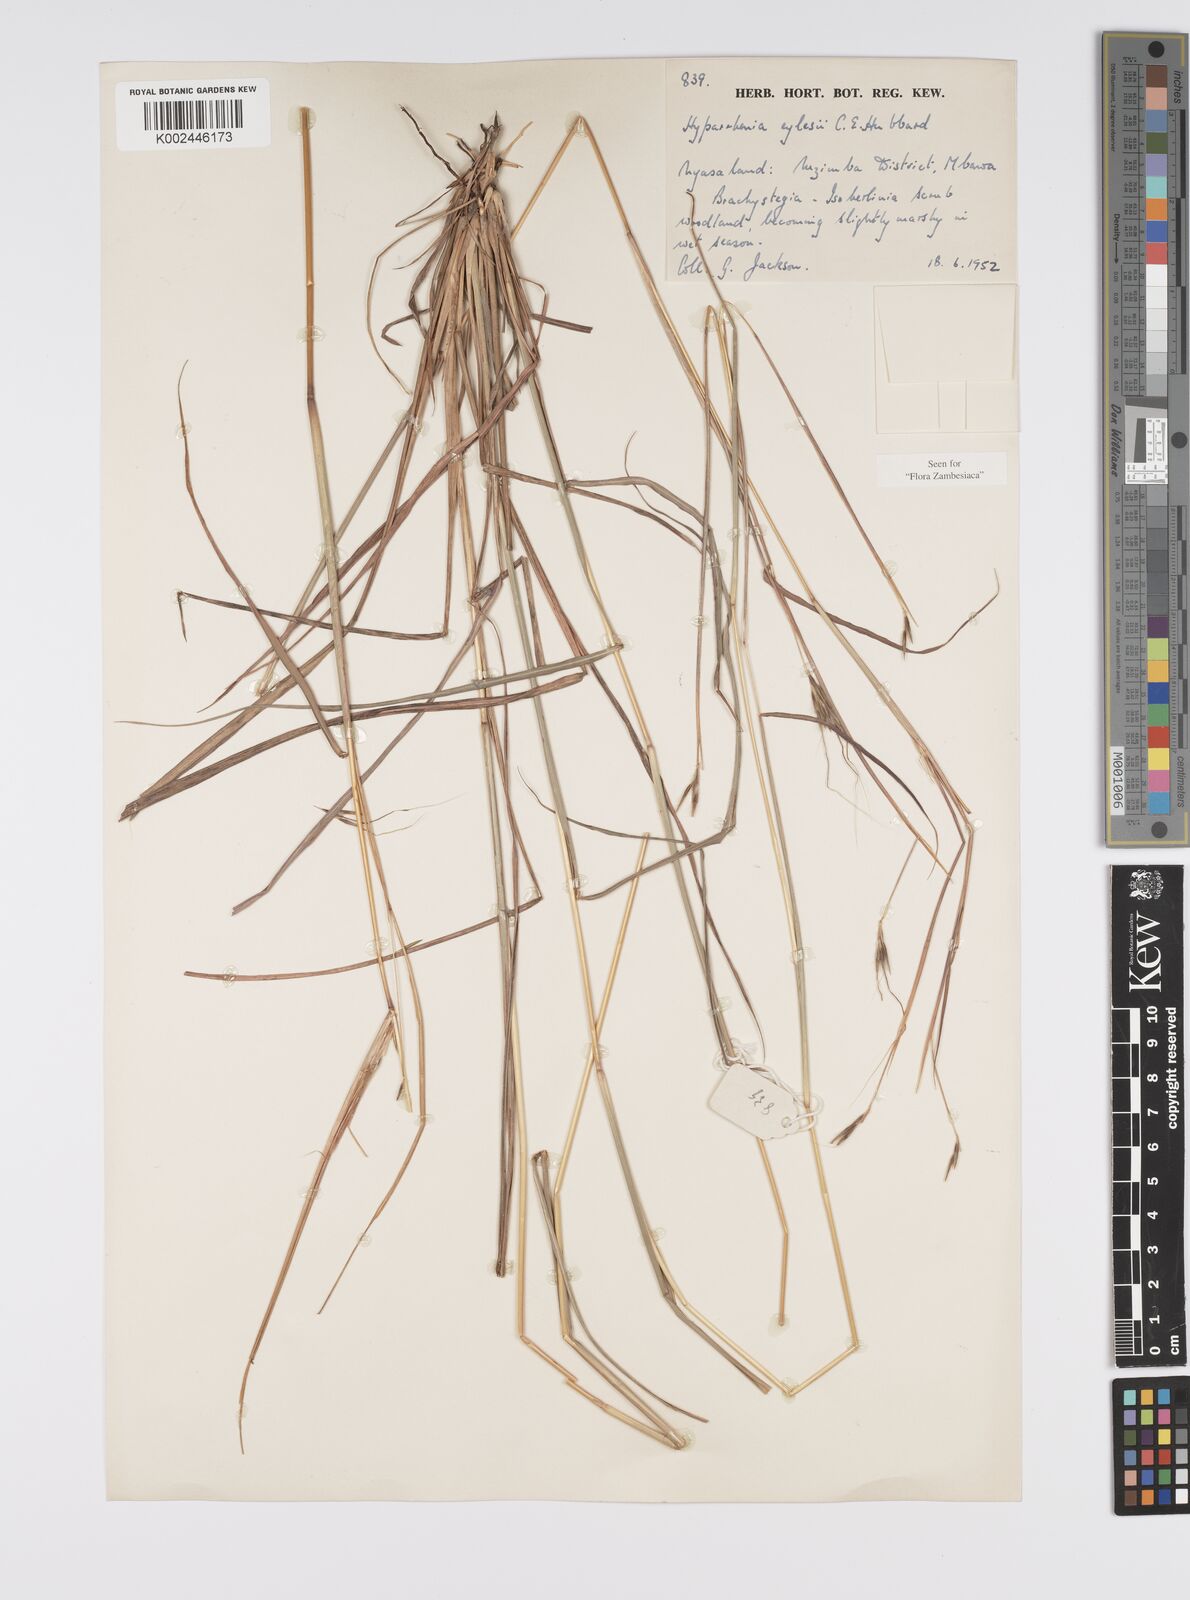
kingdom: Plantae
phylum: Tracheophyta
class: Liliopsida
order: Poales
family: Poaceae
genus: Elymandra
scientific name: Elymandra grallata
